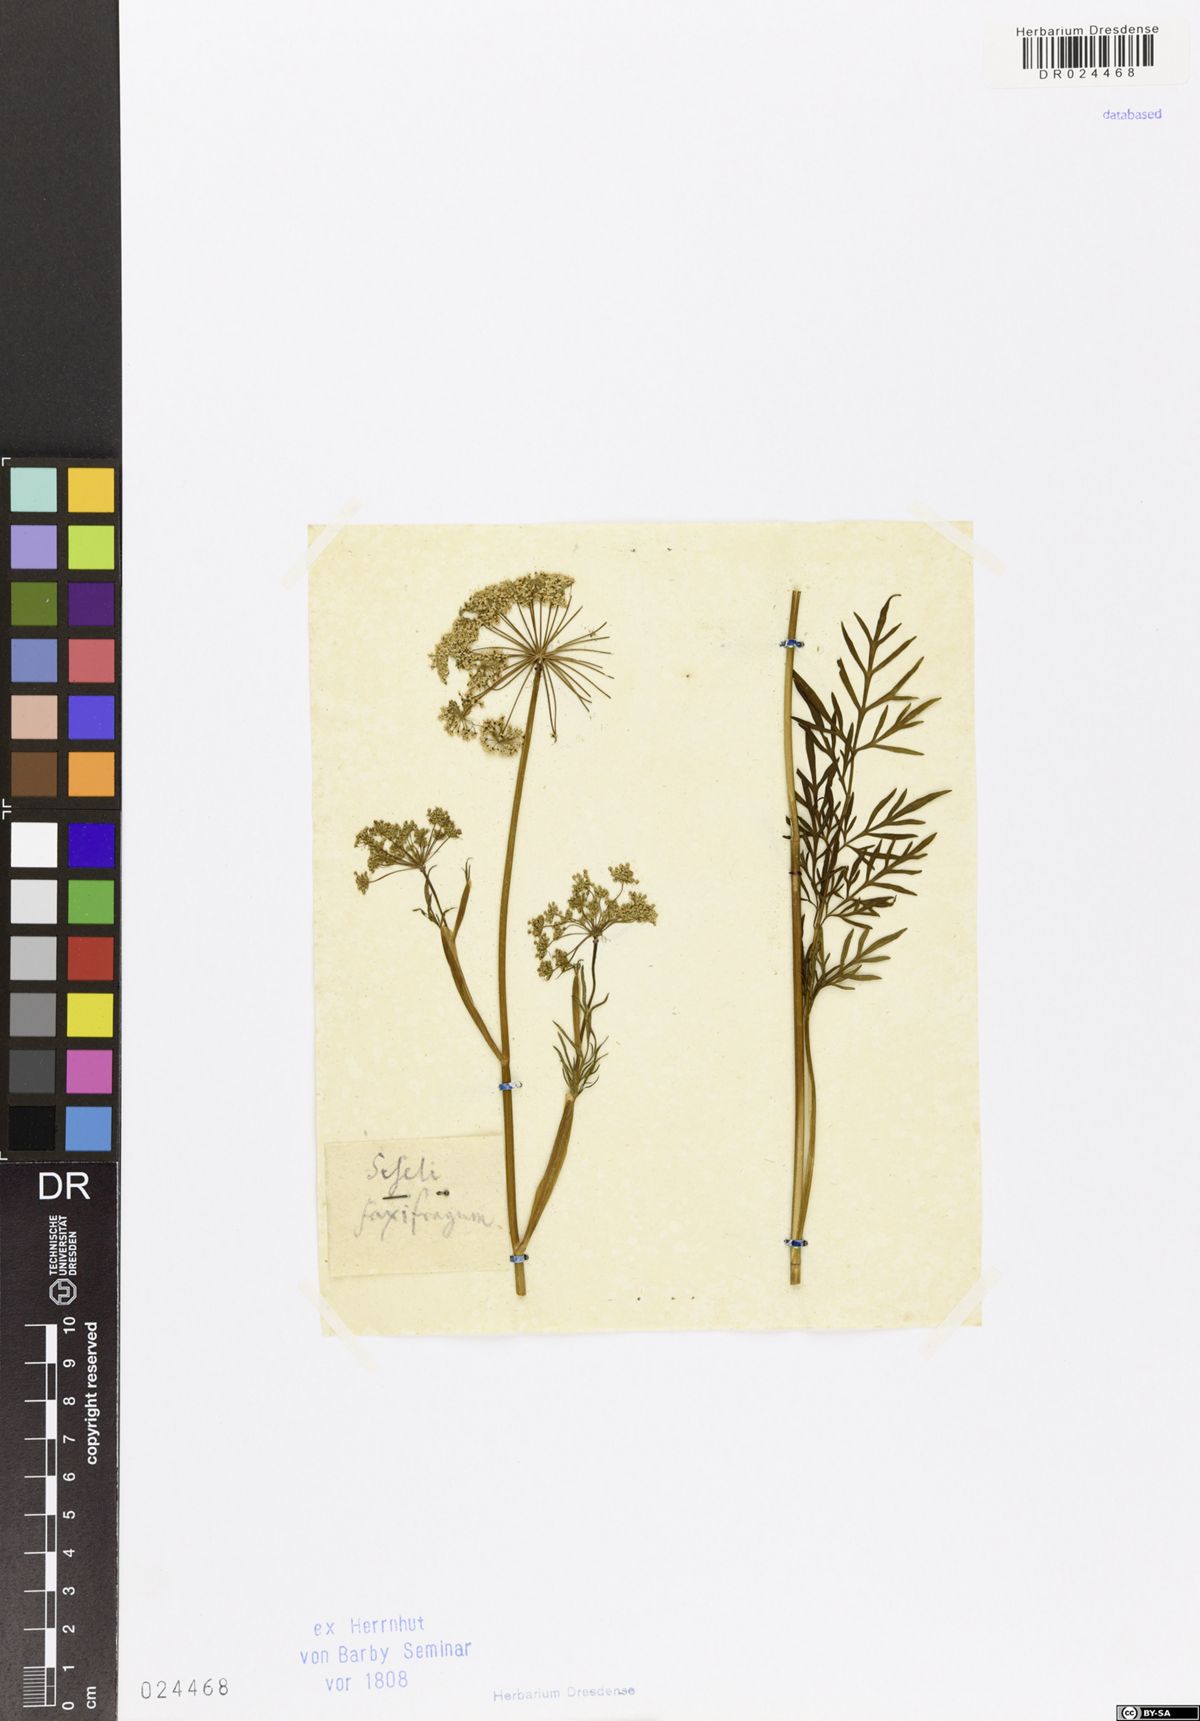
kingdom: Plantae
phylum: Tracheophyta
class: Magnoliopsida
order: Apiales
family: Apiaceae
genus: Kadenia
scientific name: Kadenia dubia
